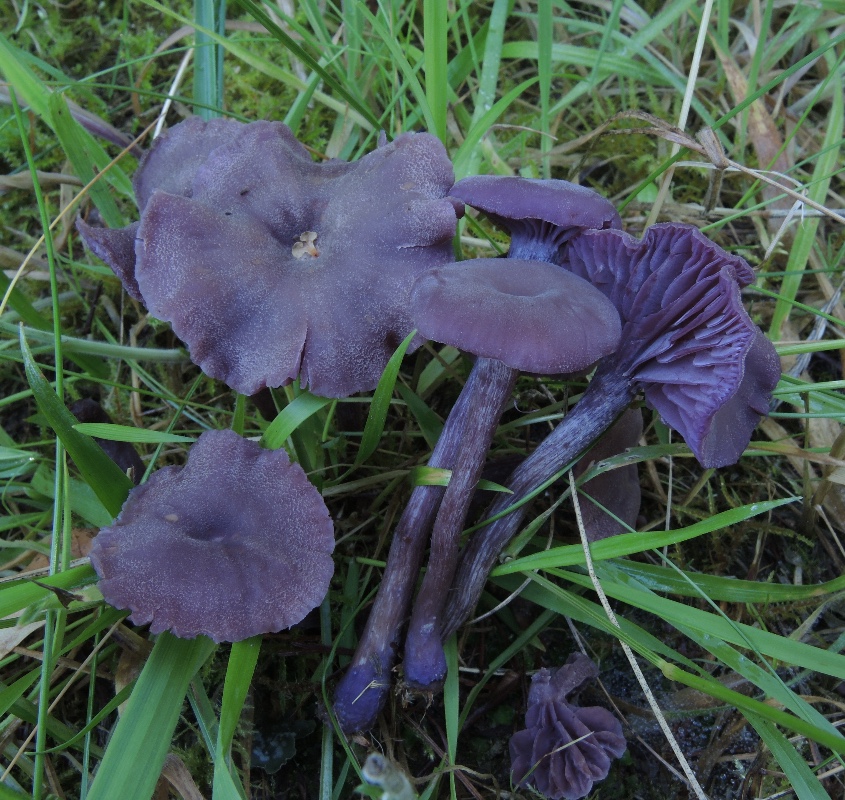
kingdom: Fungi
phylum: Basidiomycota
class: Agaricomycetes
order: Agaricales
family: Hydnangiaceae
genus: Laccaria
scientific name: Laccaria amethystina
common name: violet ametysthat
